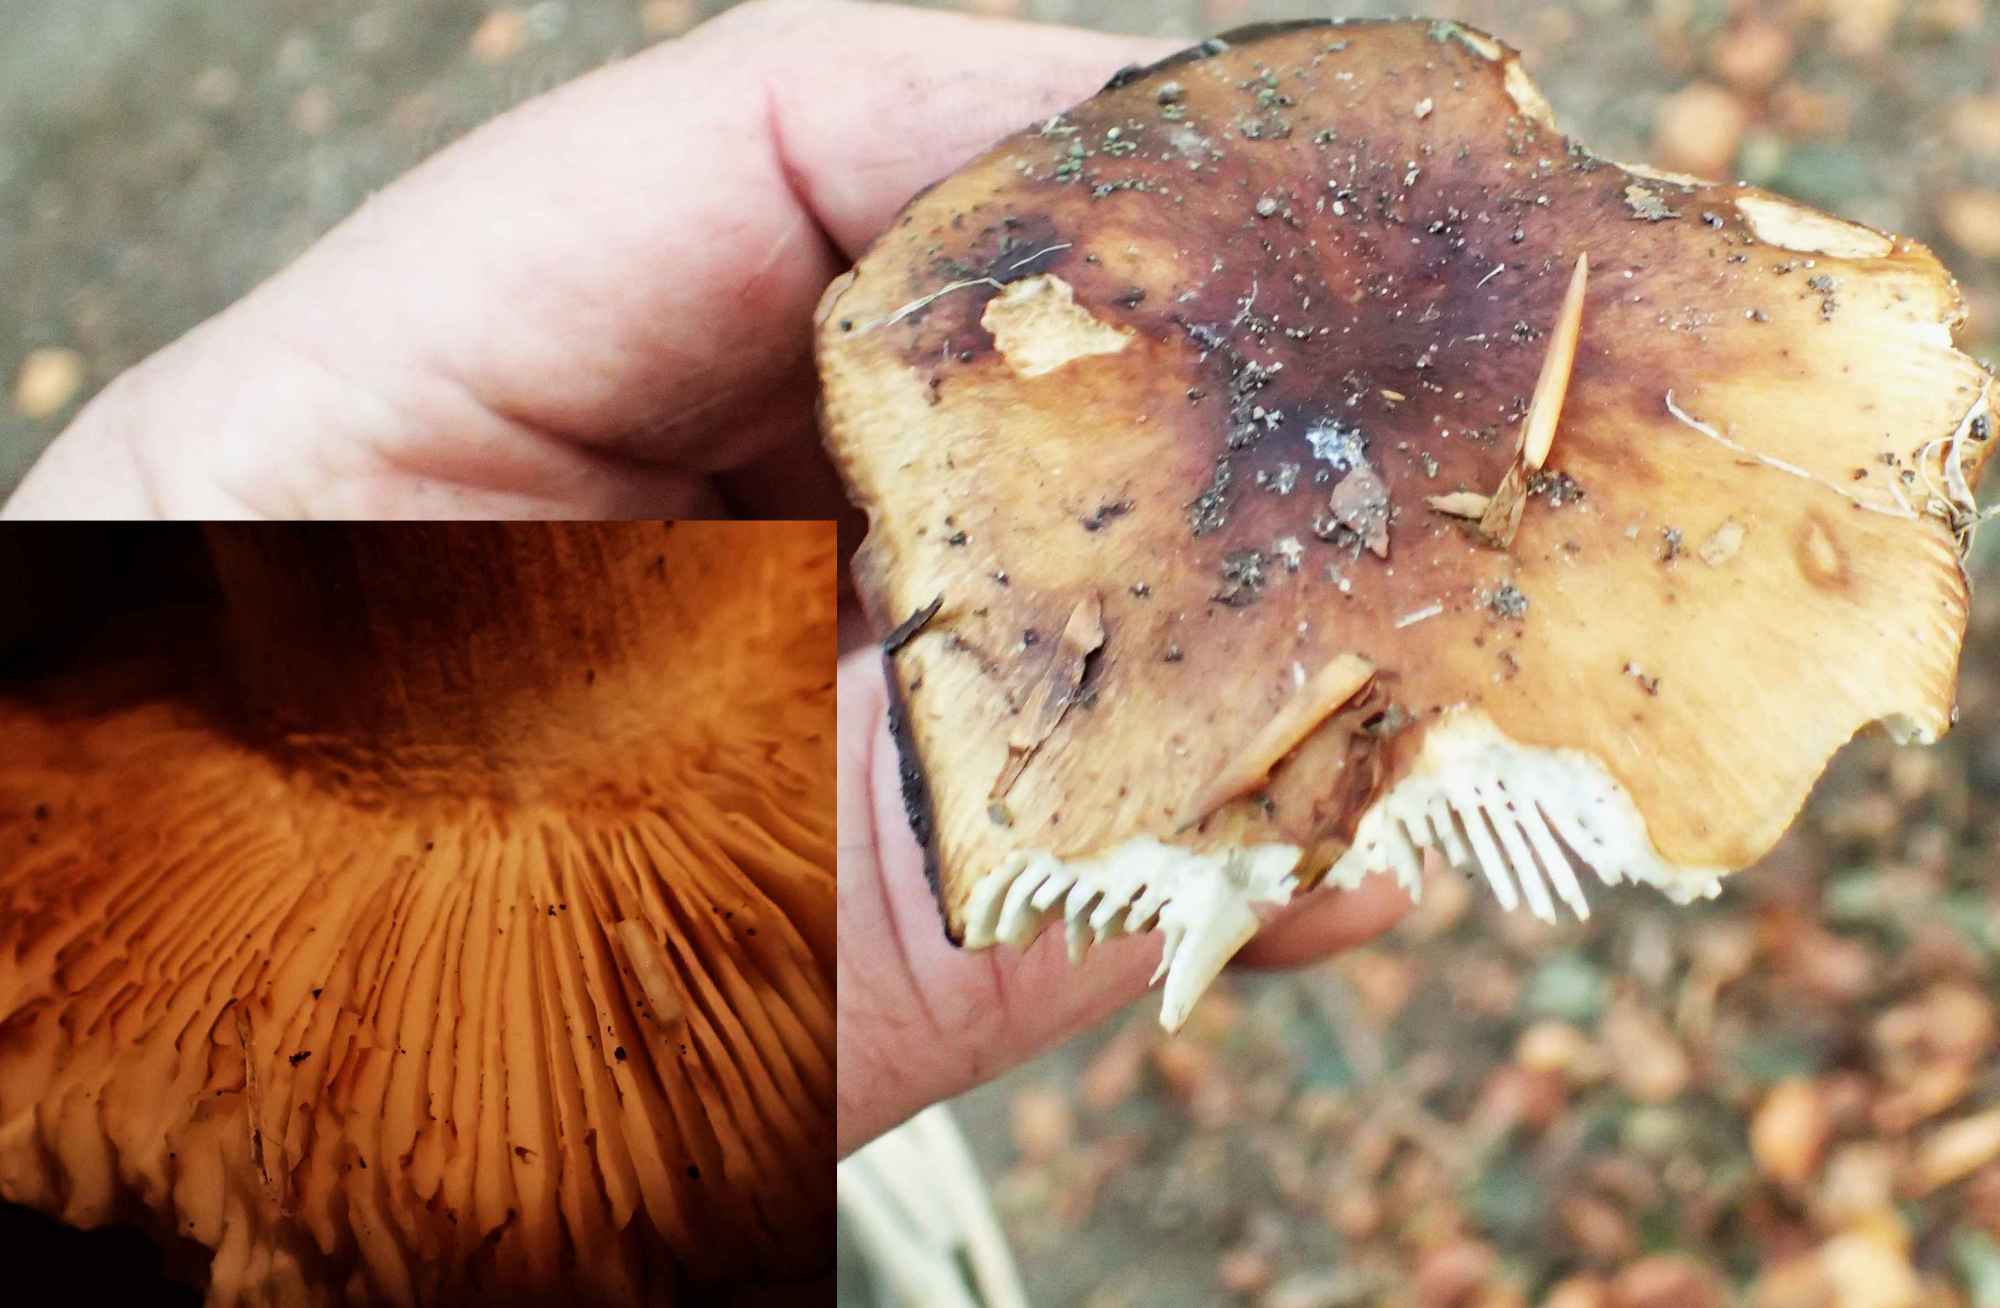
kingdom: Fungi
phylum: Basidiomycota
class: Agaricomycetes
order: Russulales
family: Russulaceae
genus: Russula
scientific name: Russula illota
